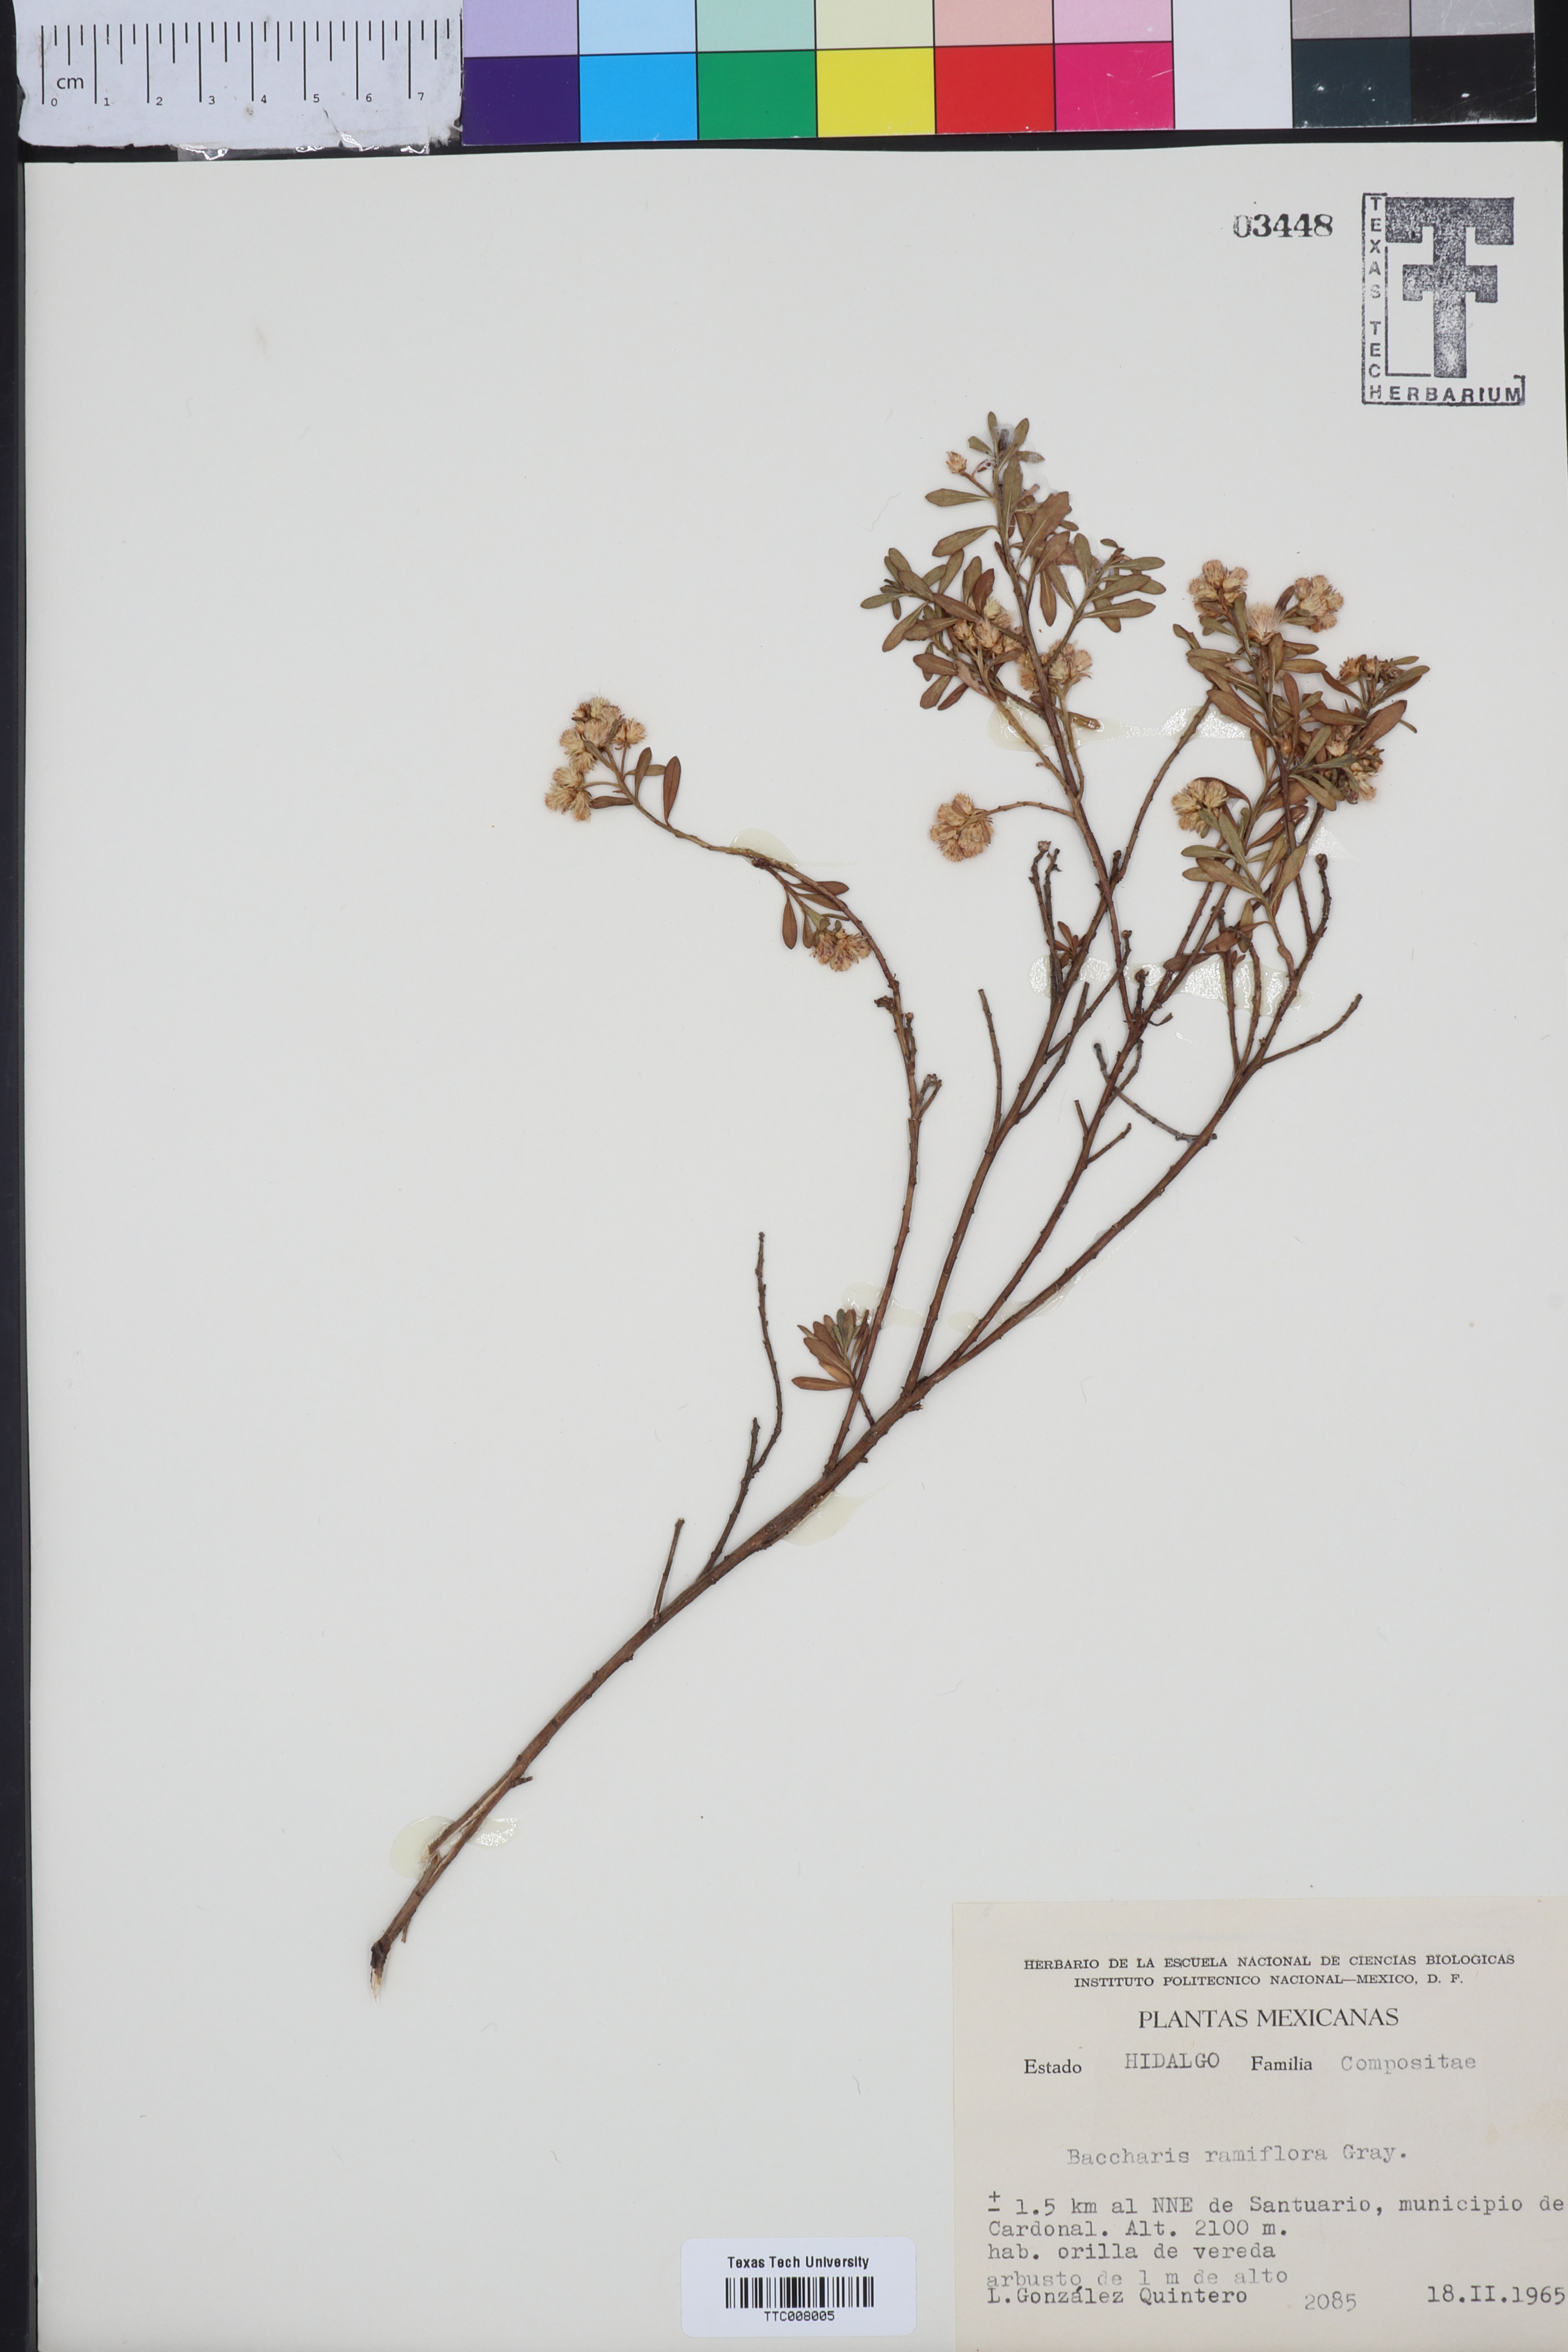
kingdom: Plantae
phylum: Tracheophyta
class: Magnoliopsida
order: Asterales
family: Asteraceae
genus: Baccharis
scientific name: Baccharis ramiflora
